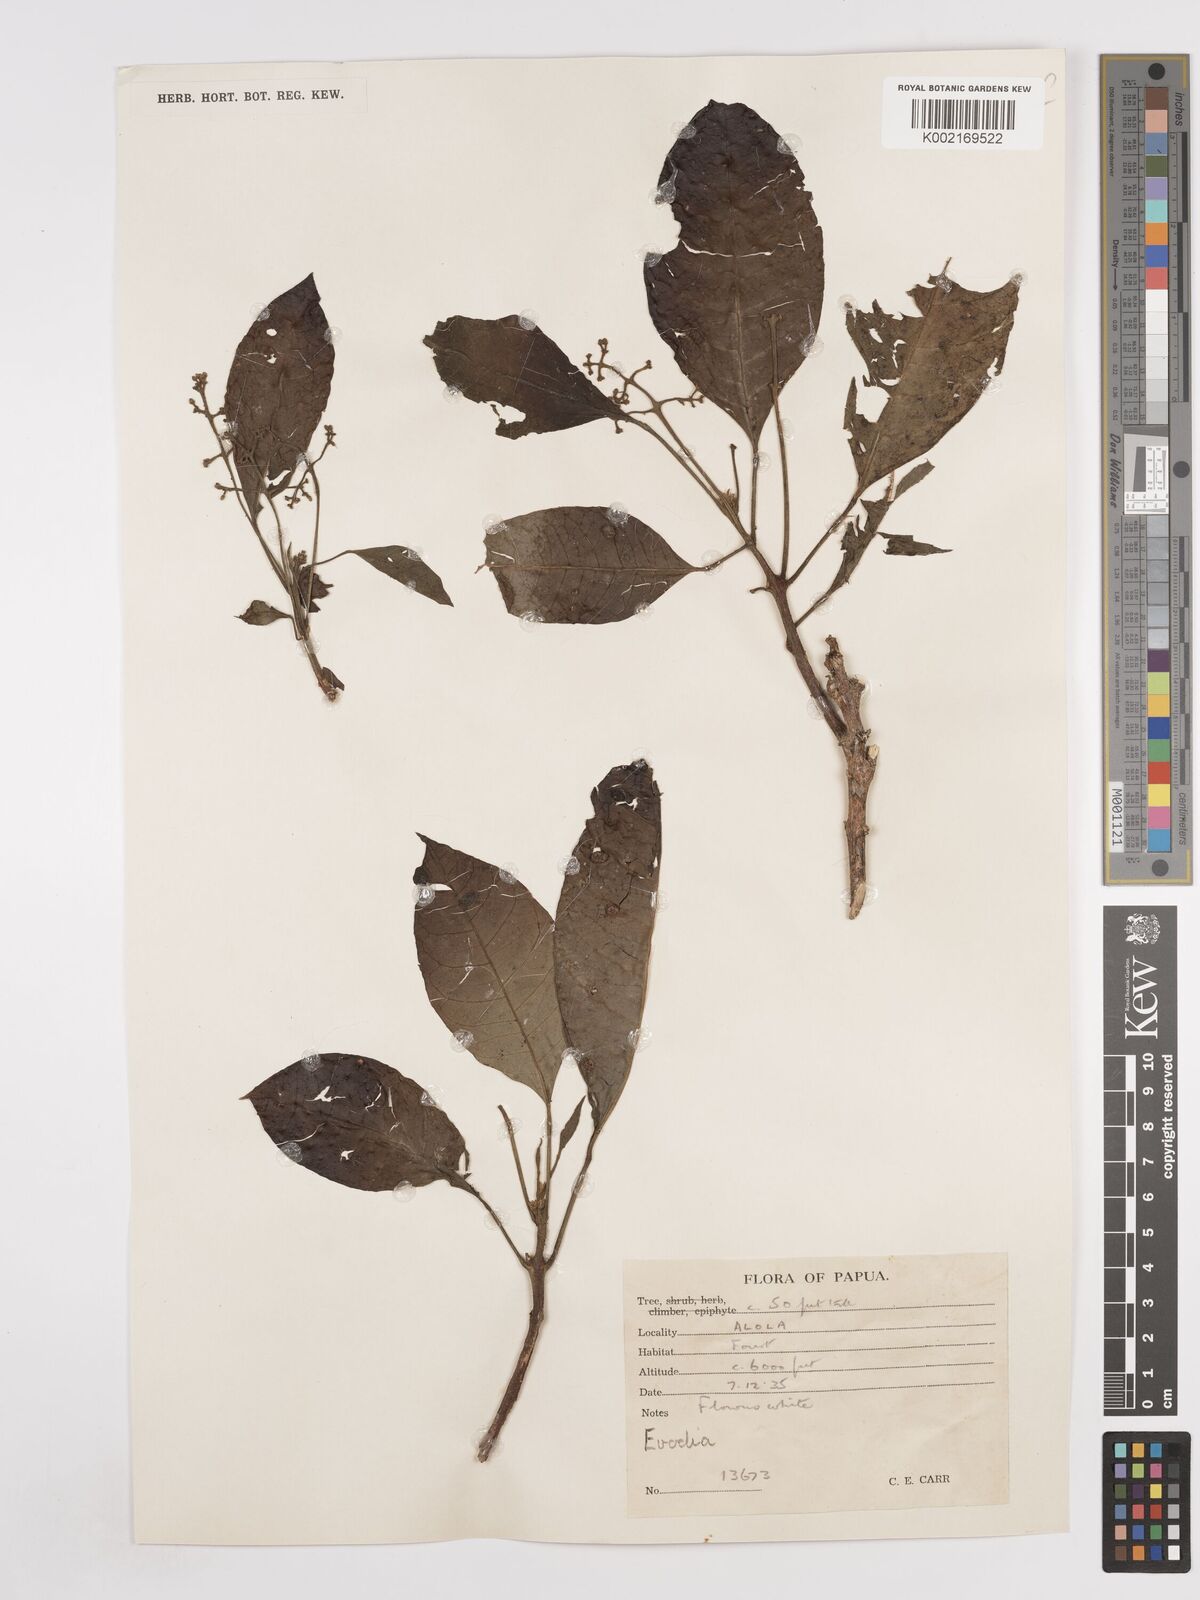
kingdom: Plantae
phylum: Tracheophyta
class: Magnoliopsida
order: Sapindales
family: Rutaceae
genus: Euodia
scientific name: Euodia
